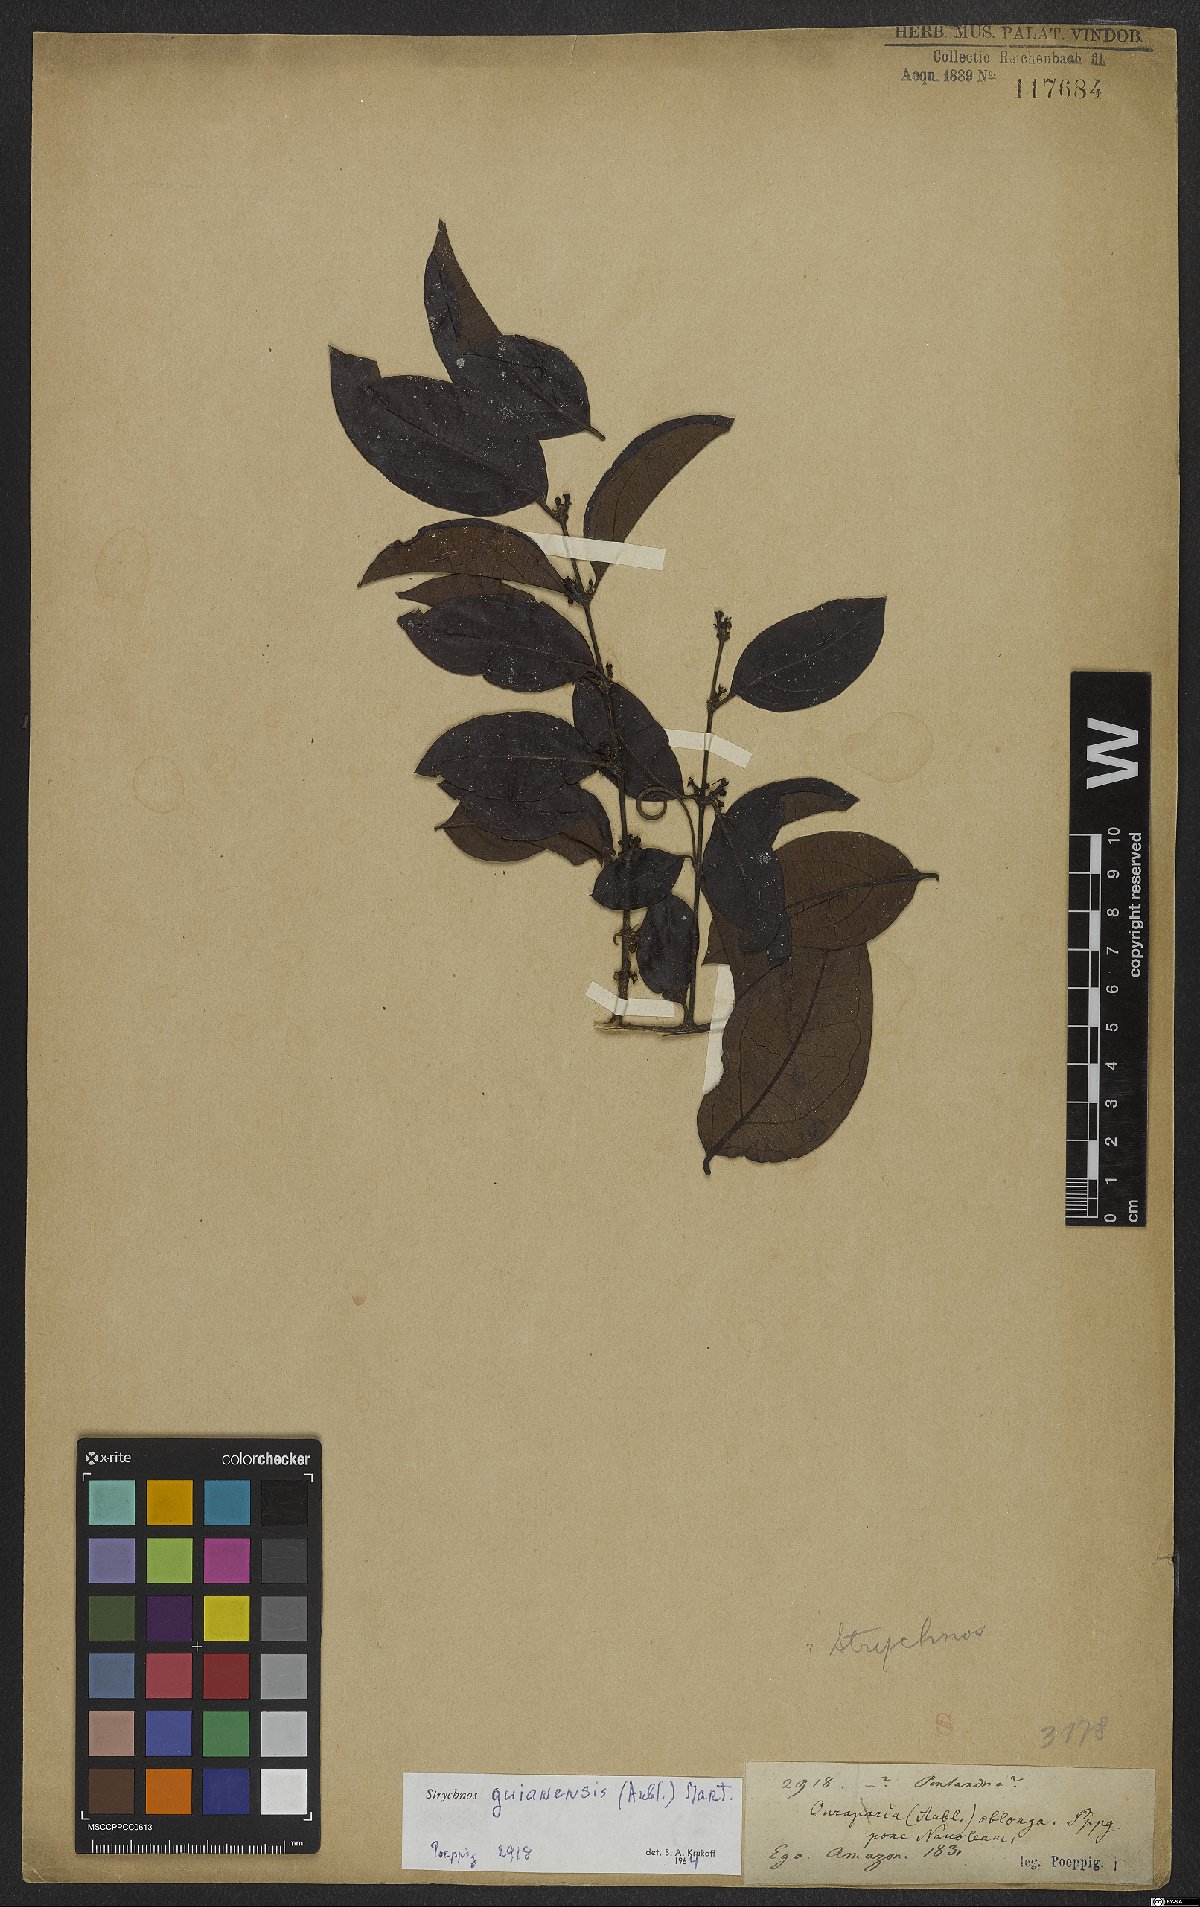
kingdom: Plantae
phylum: Tracheophyta
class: Magnoliopsida
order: Gentianales
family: Loganiaceae
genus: Strychnos
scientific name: Strychnos guianensis
